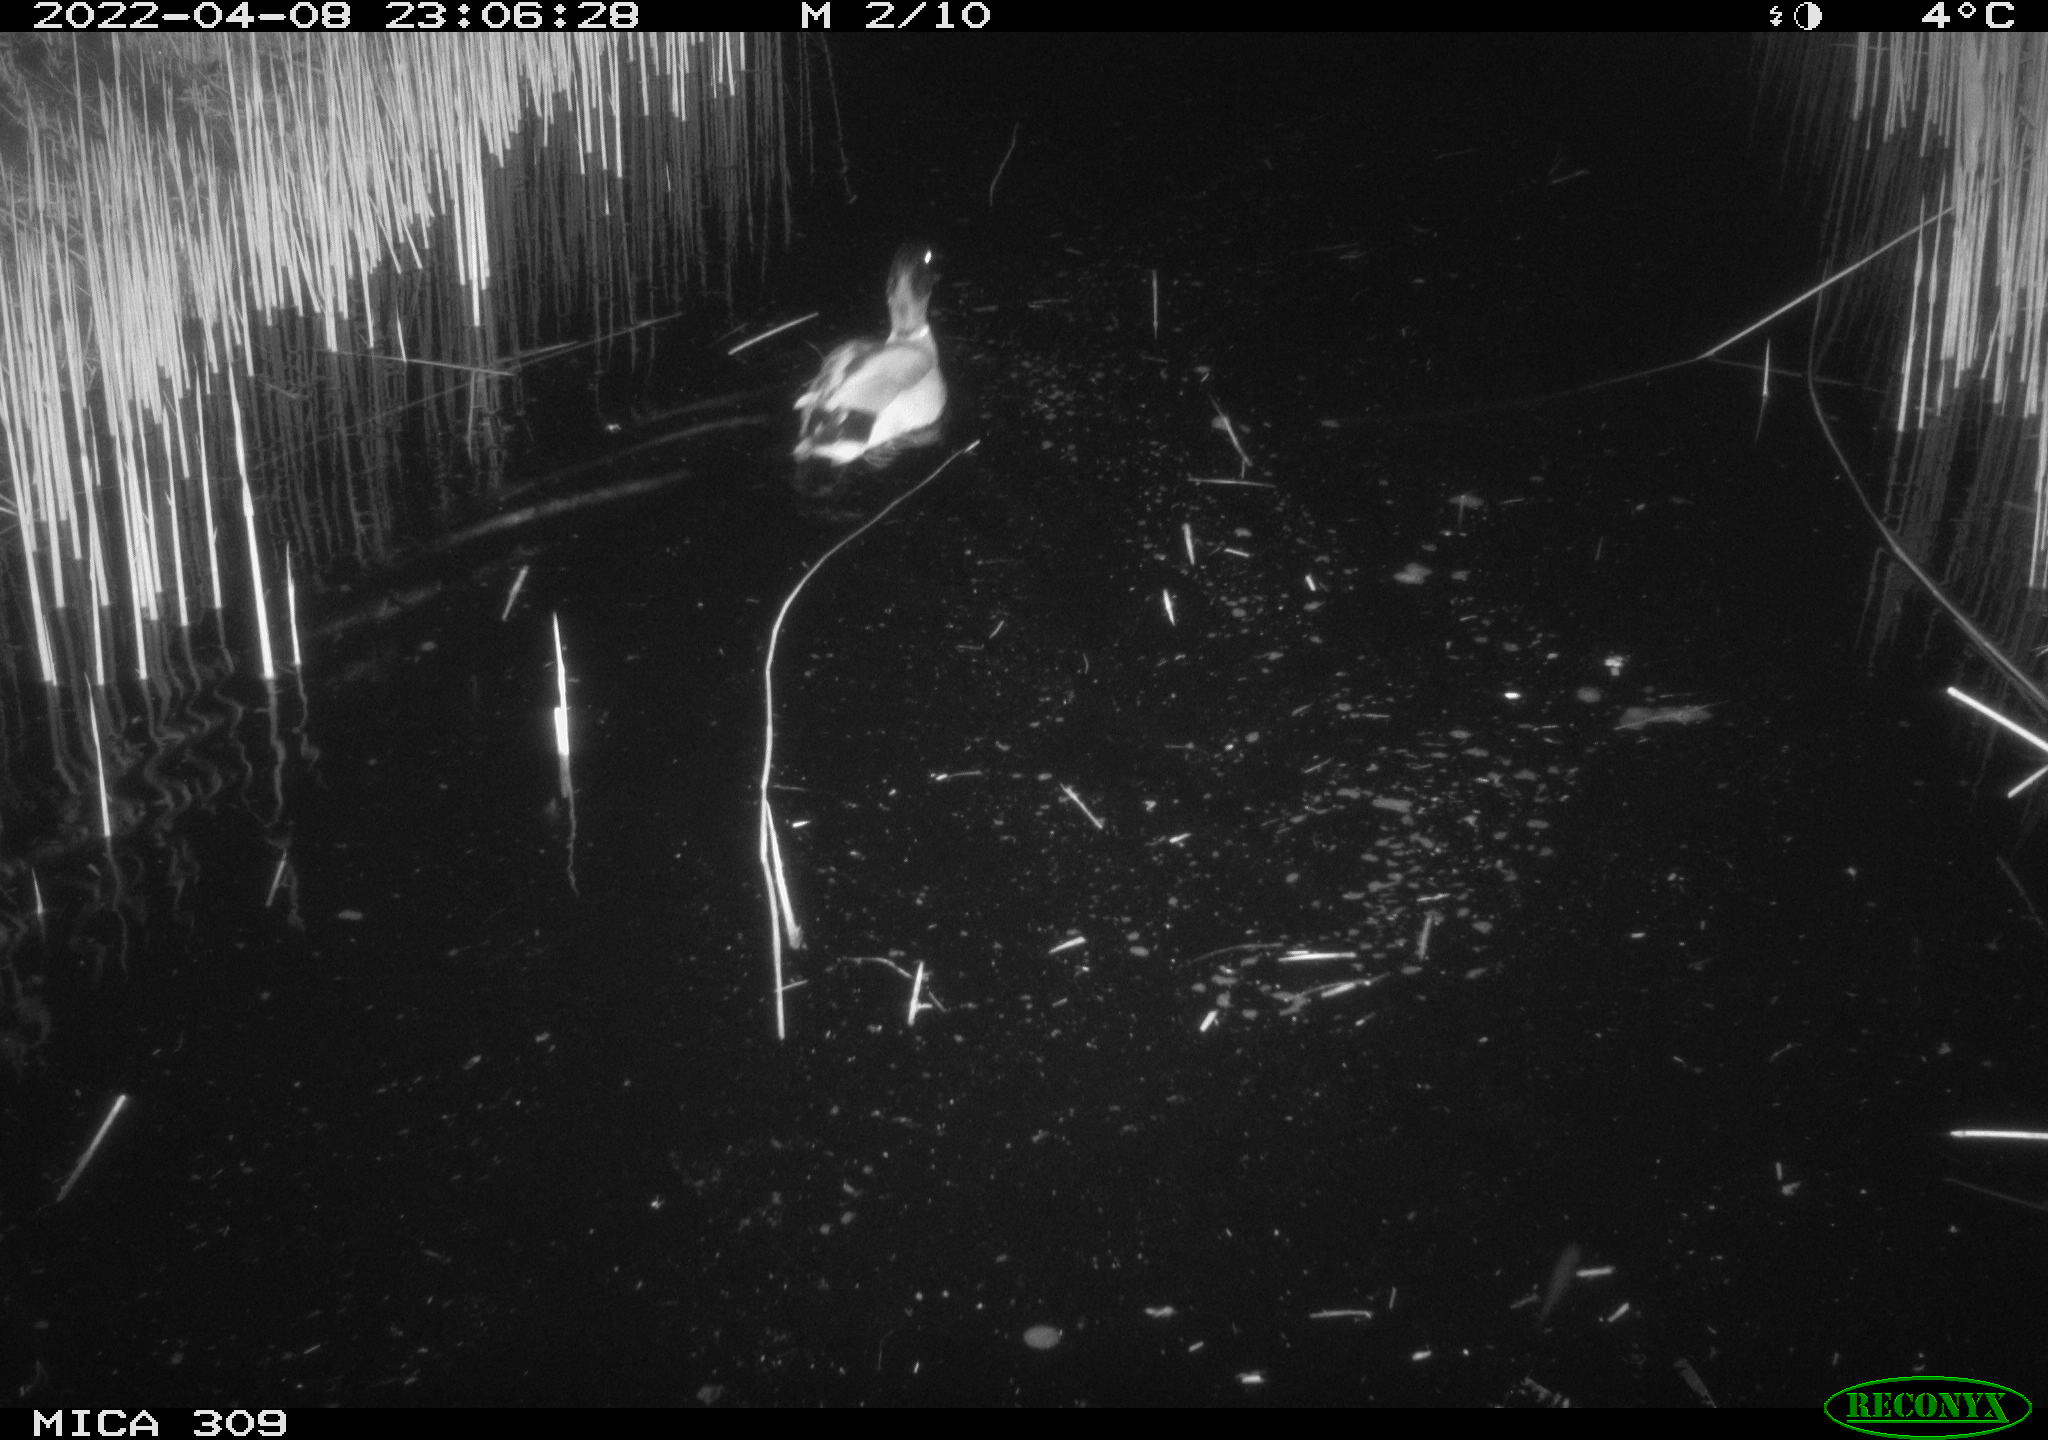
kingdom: Animalia
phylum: Chordata
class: Aves
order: Anseriformes
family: Anatidae
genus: Anas
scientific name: Anas platyrhynchos
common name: Mallard
